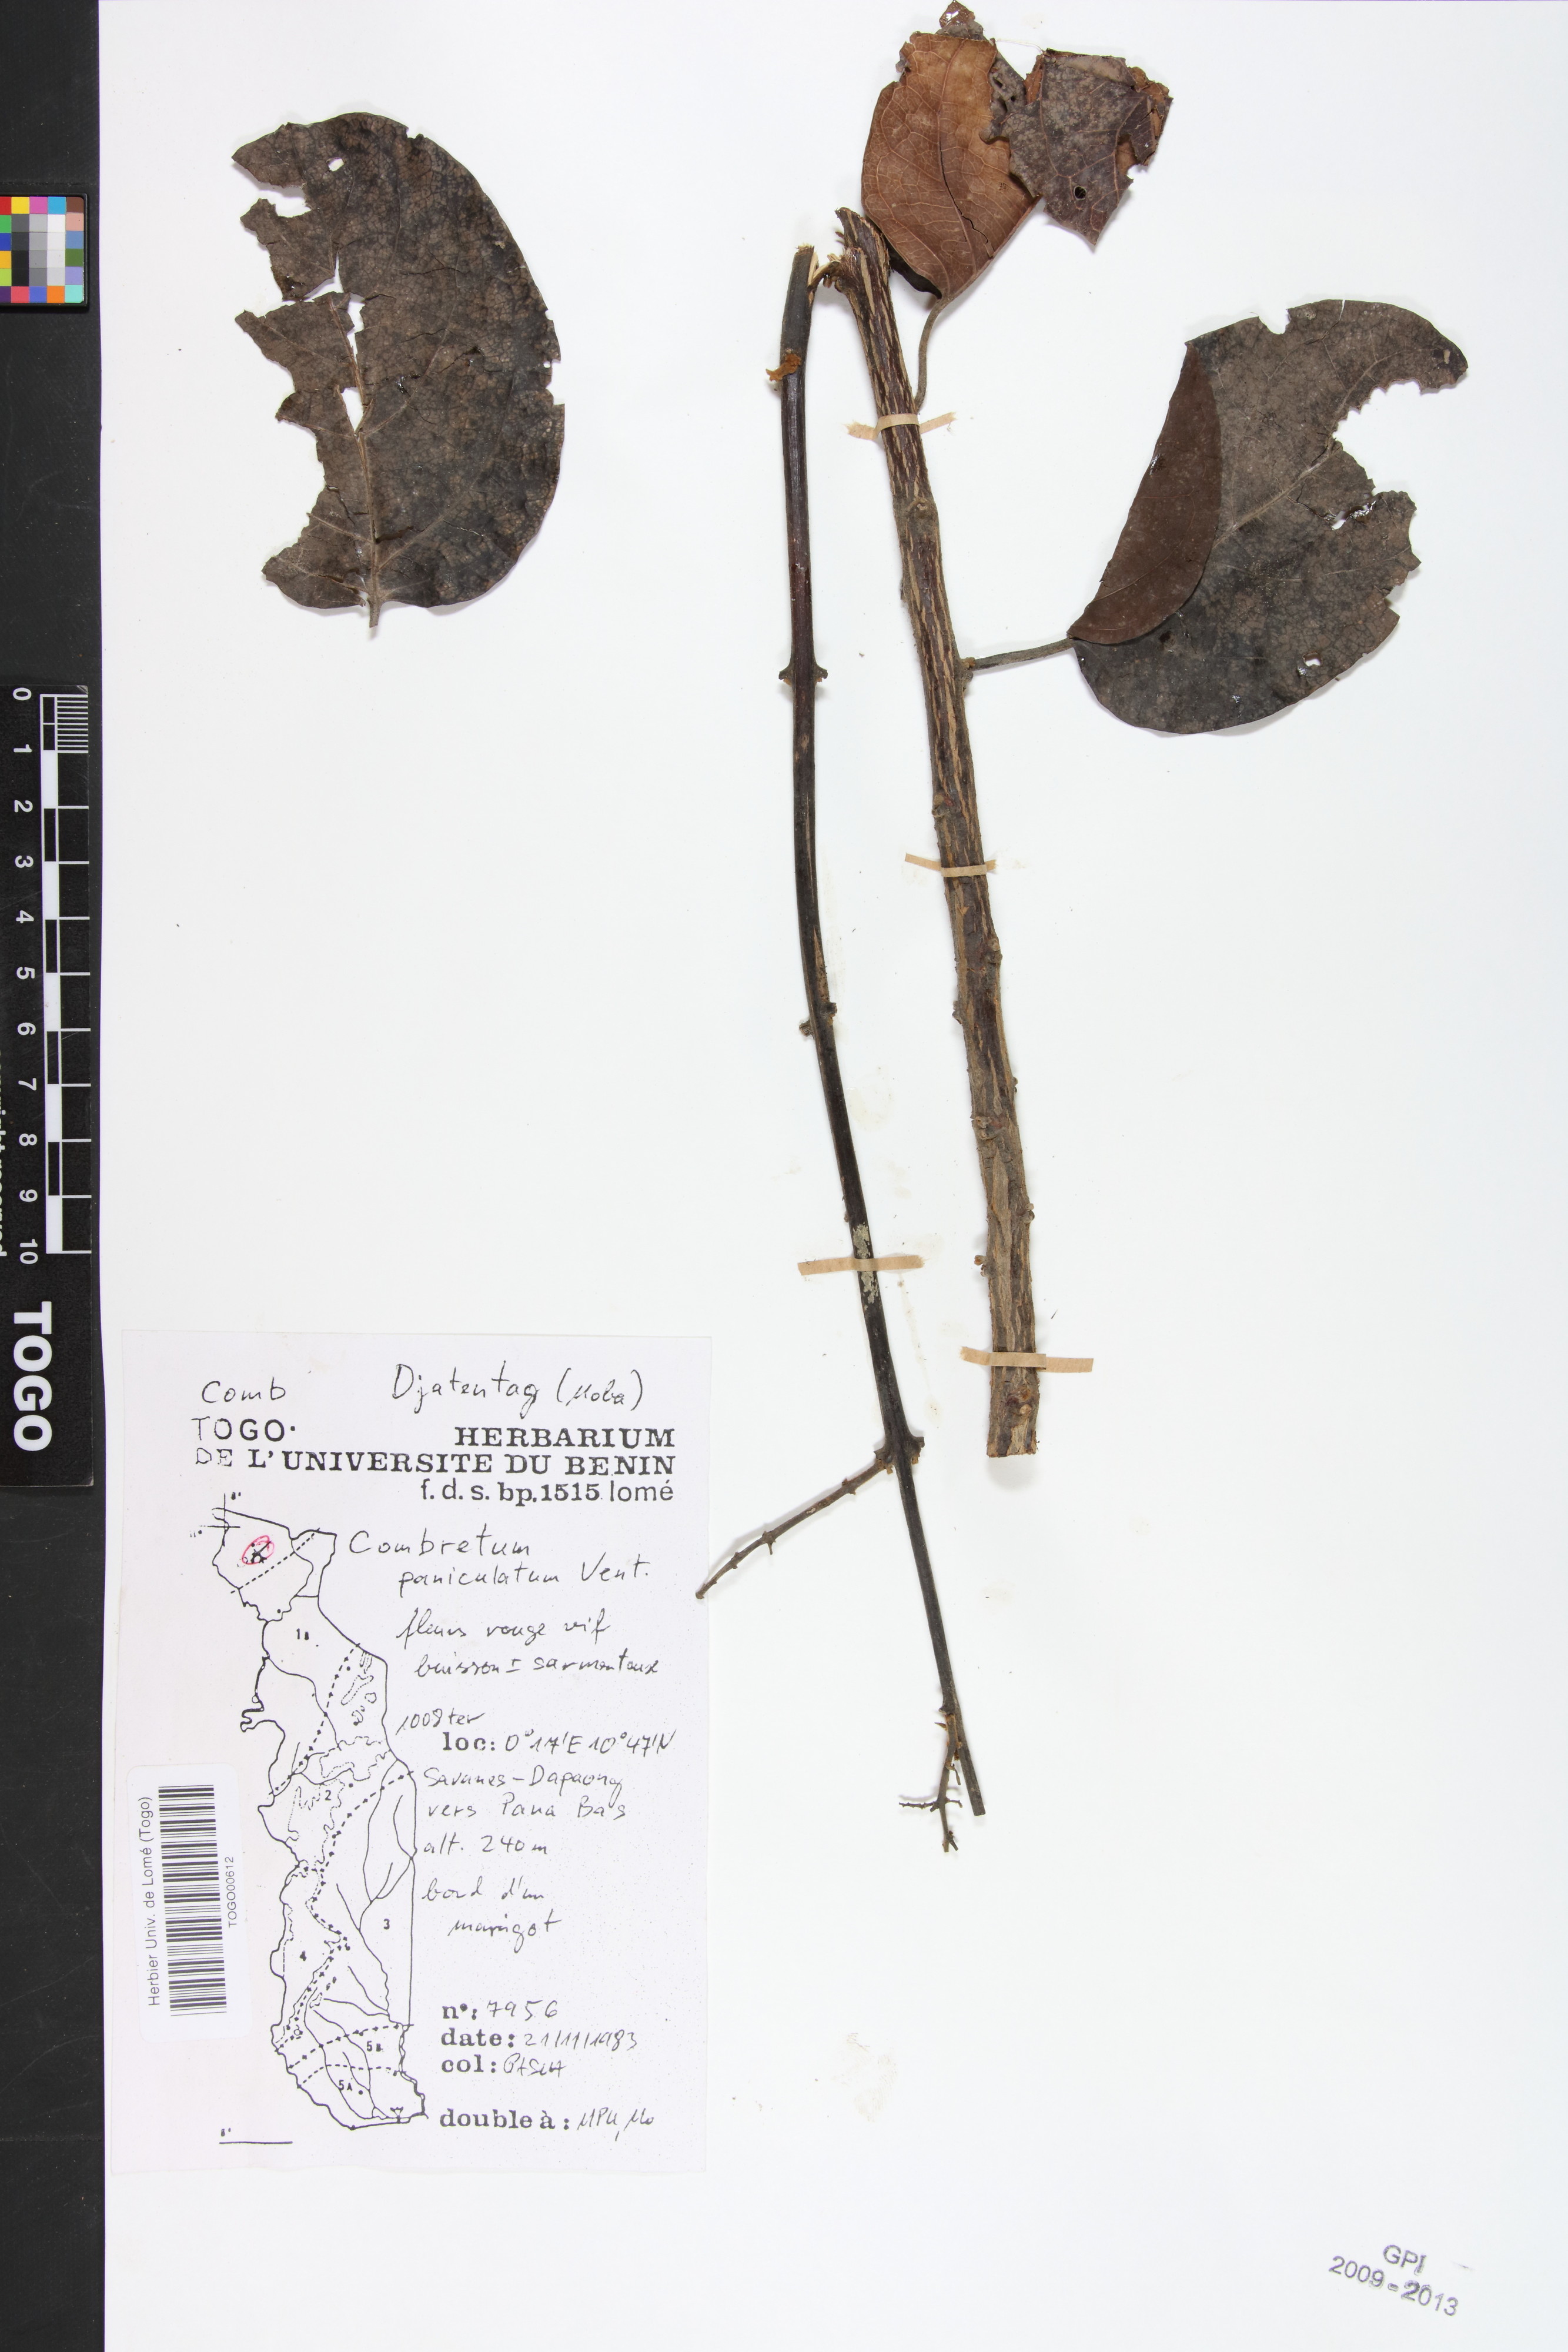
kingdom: Plantae
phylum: Tracheophyta
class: Magnoliopsida
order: Myrtales
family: Combretaceae
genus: Combretum
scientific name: Combretum paniculatum
